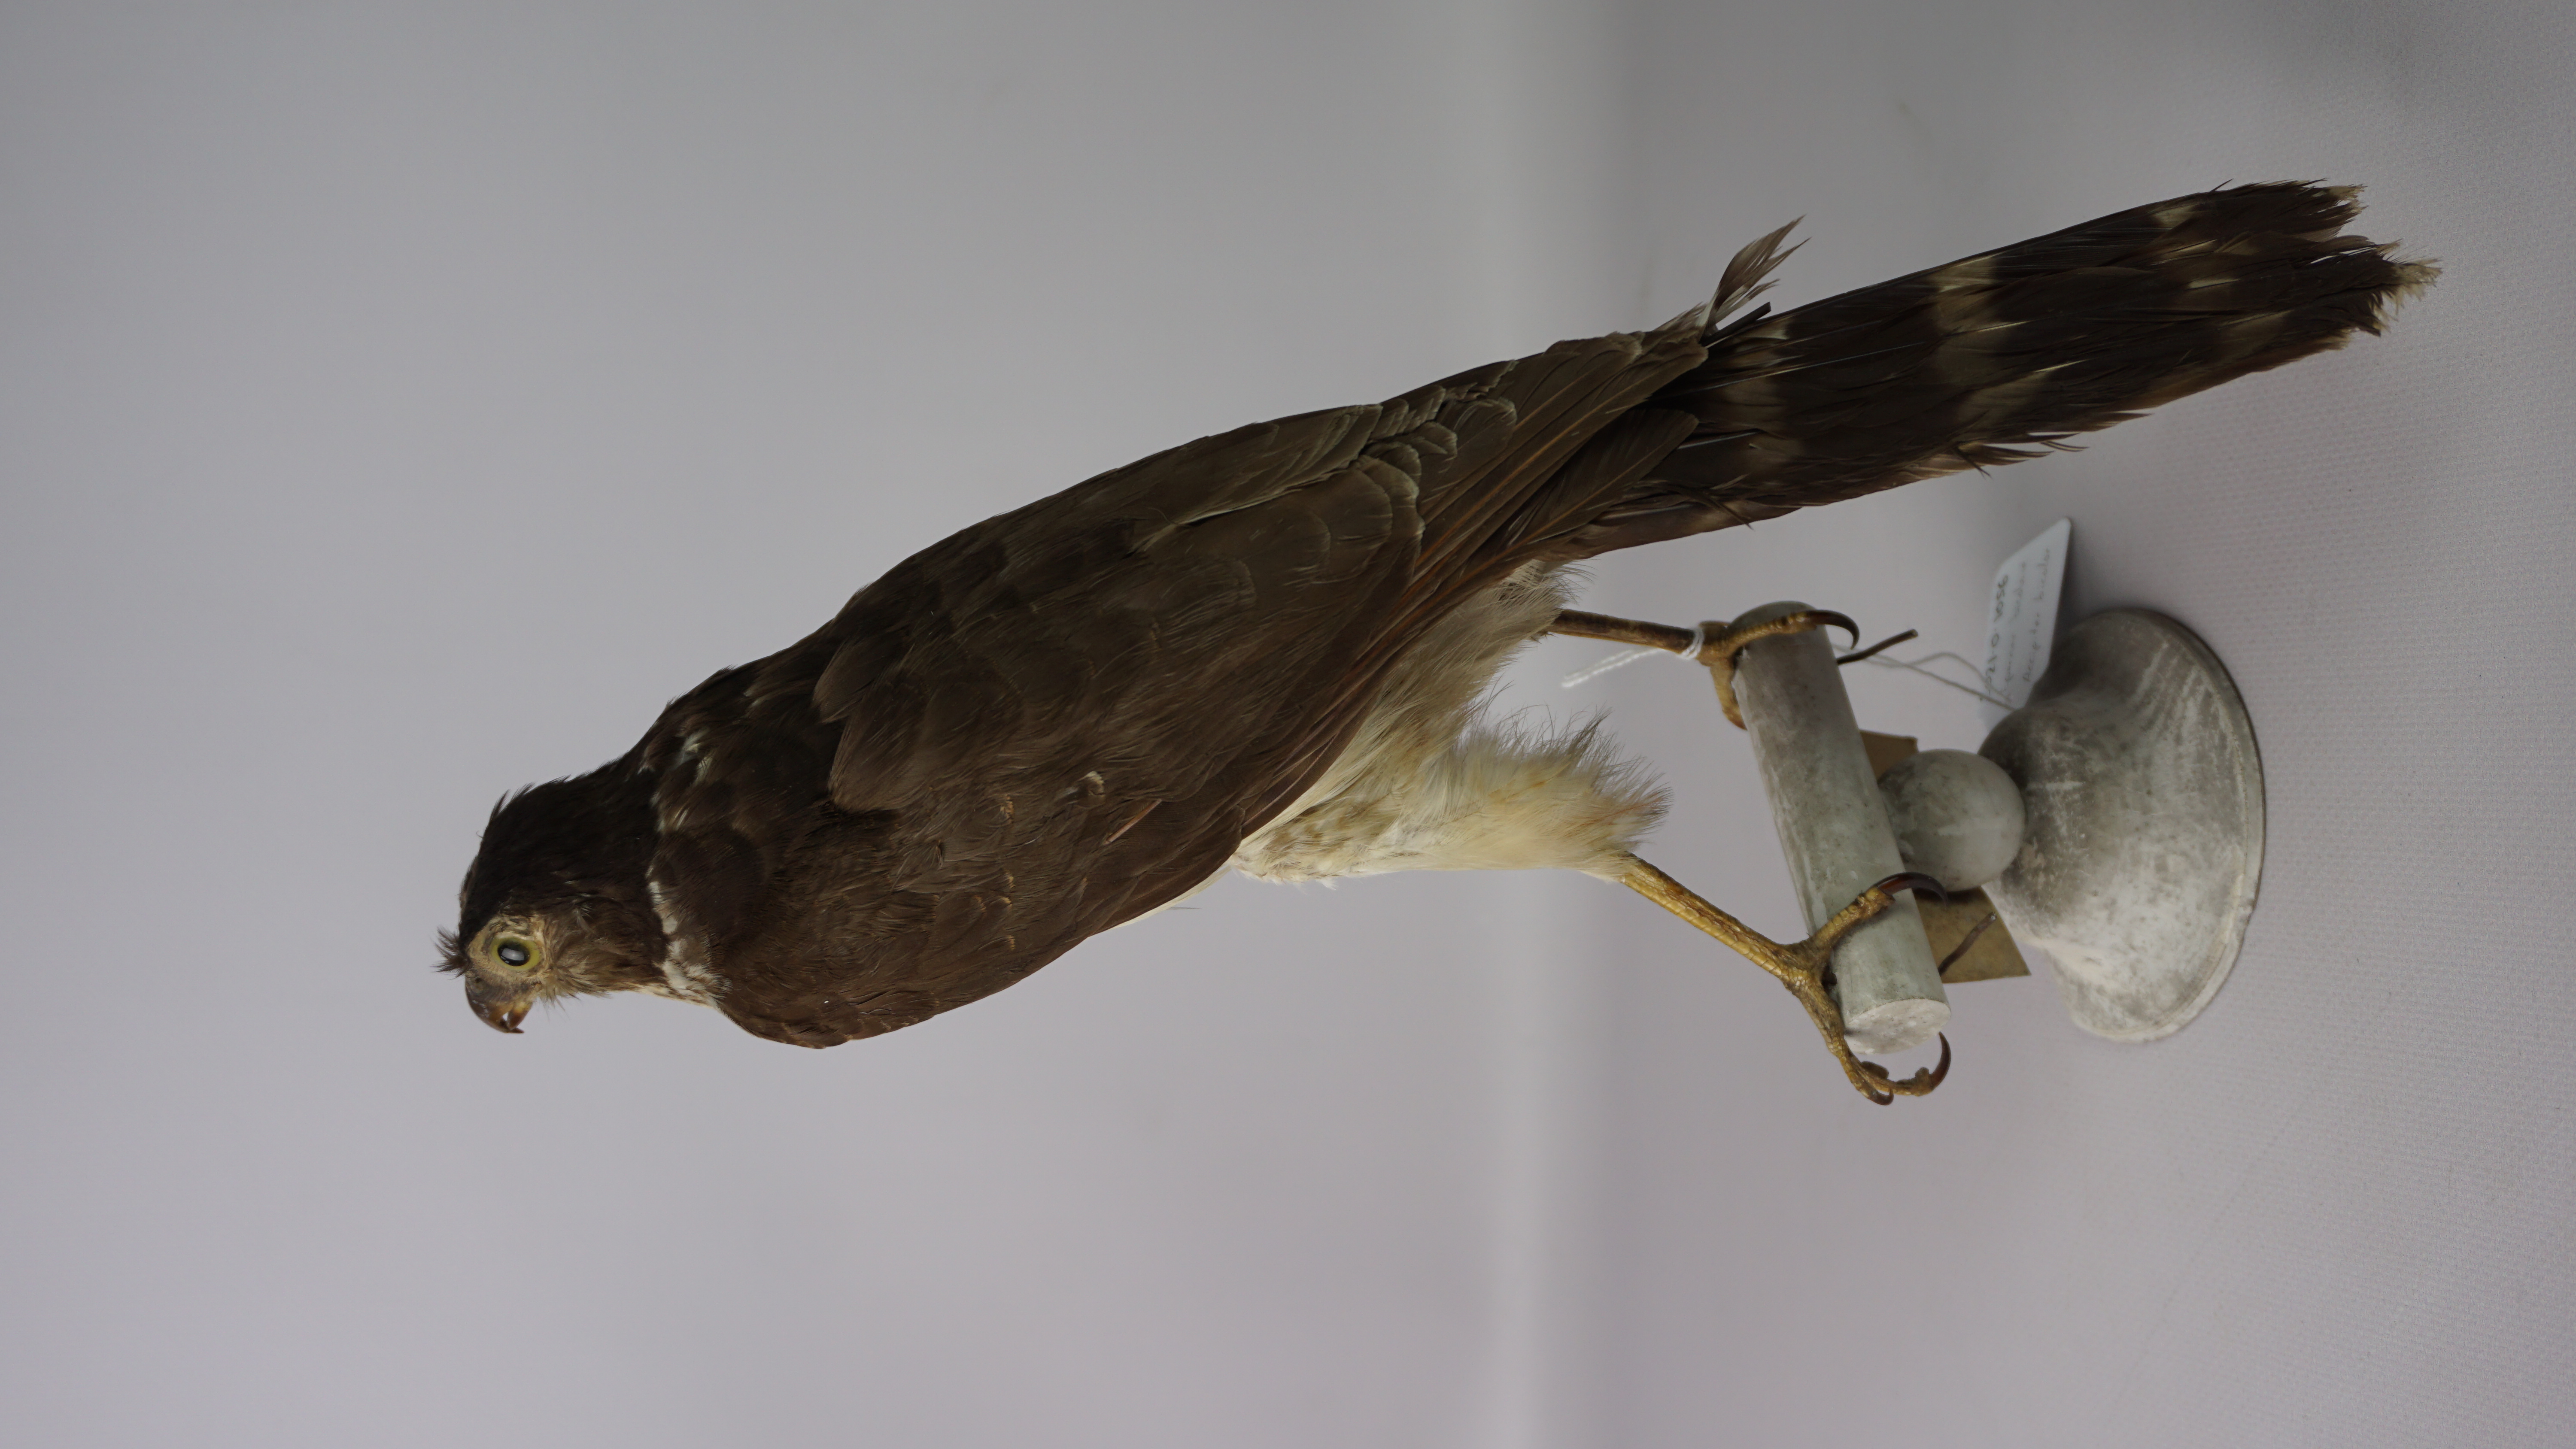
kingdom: Animalia
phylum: Chordata
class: Aves
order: Accipitriformes
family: Accipitridae
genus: Accipiter
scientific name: Accipiter bicolor
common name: Bicolored hawk
